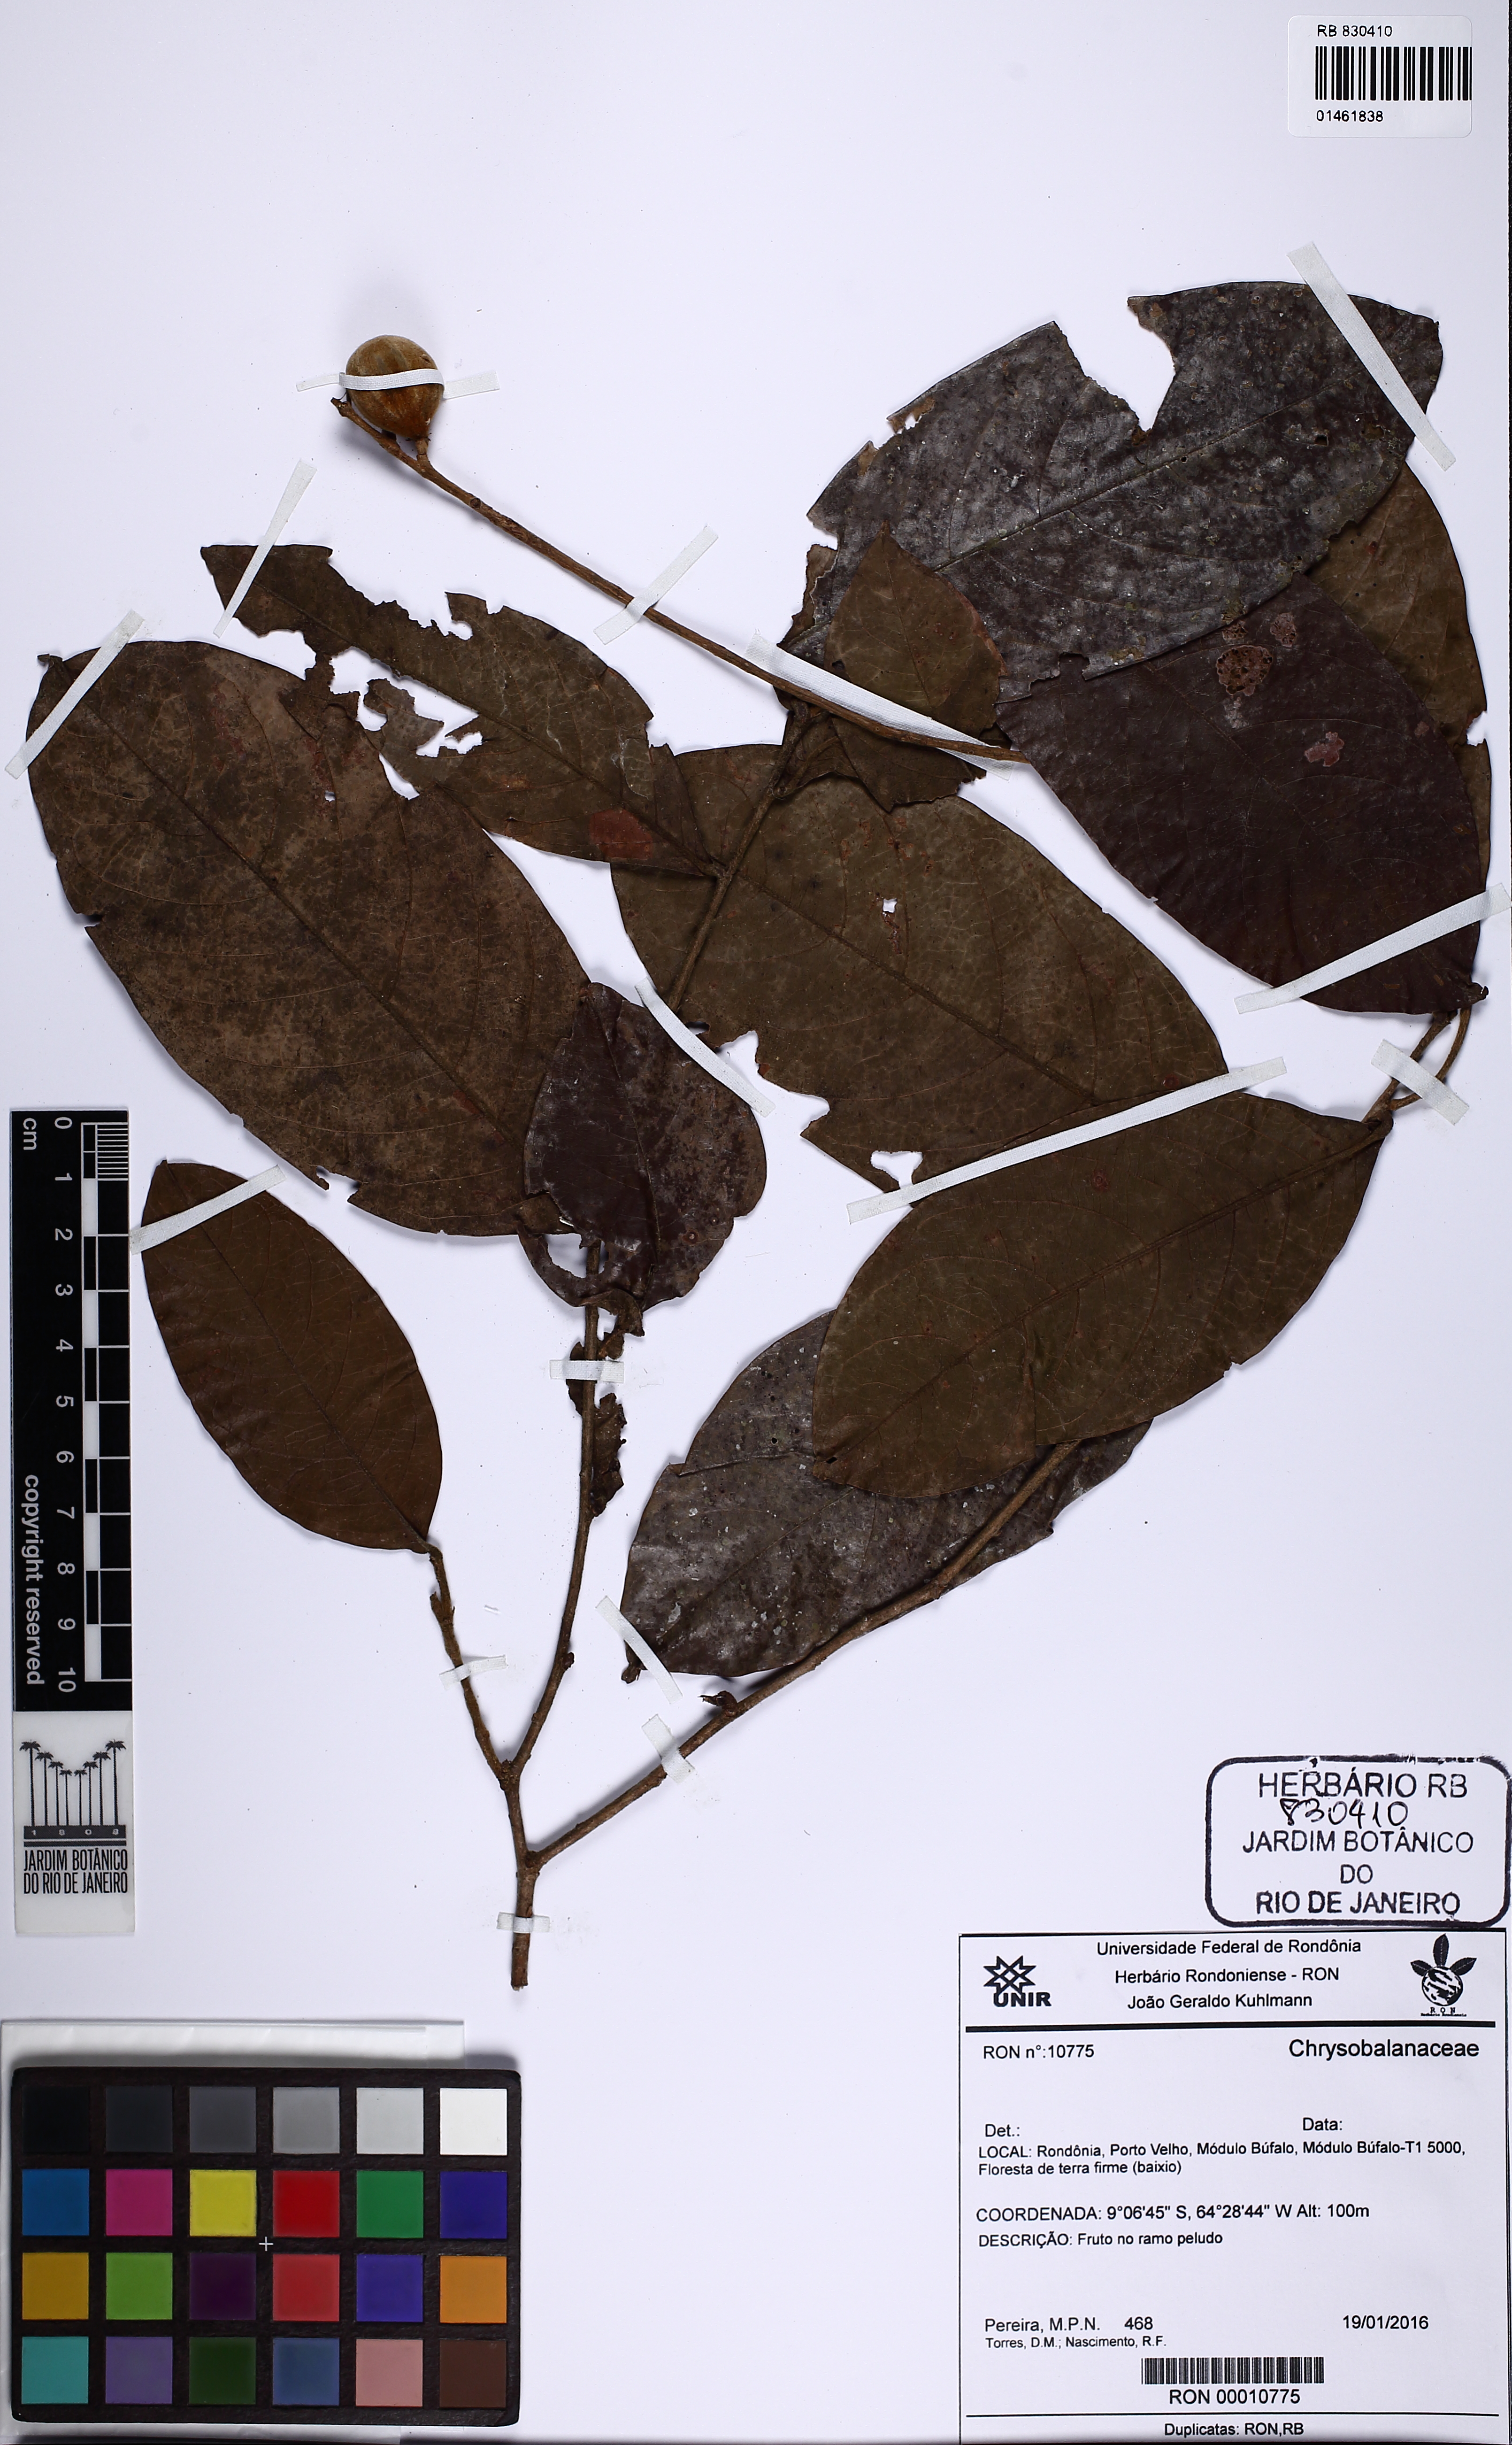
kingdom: Plantae
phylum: Tracheophyta
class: Magnoliopsida
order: Malpighiales
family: Chrysobalanaceae
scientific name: Chrysobalanaceae
